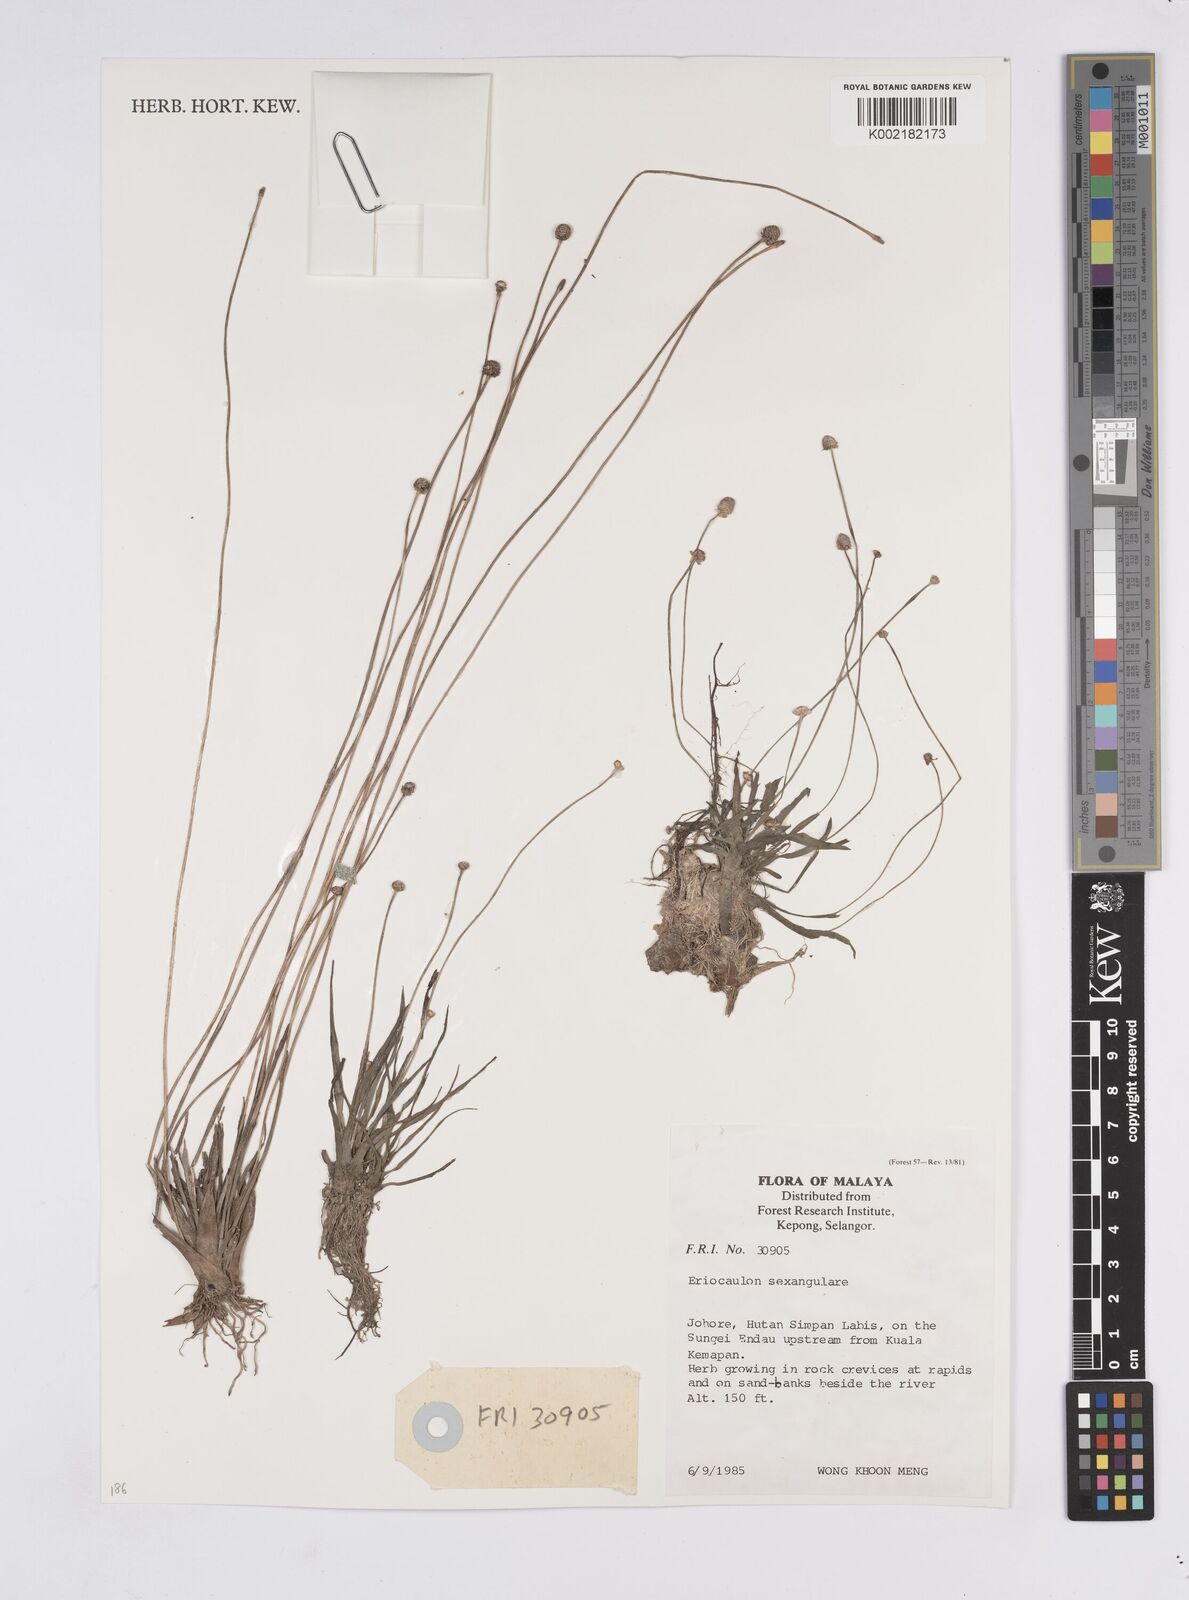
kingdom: Plantae
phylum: Tracheophyta
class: Liliopsida
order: Poales
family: Eriocaulaceae
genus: Eriocaulon
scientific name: Eriocaulon sexangulare
